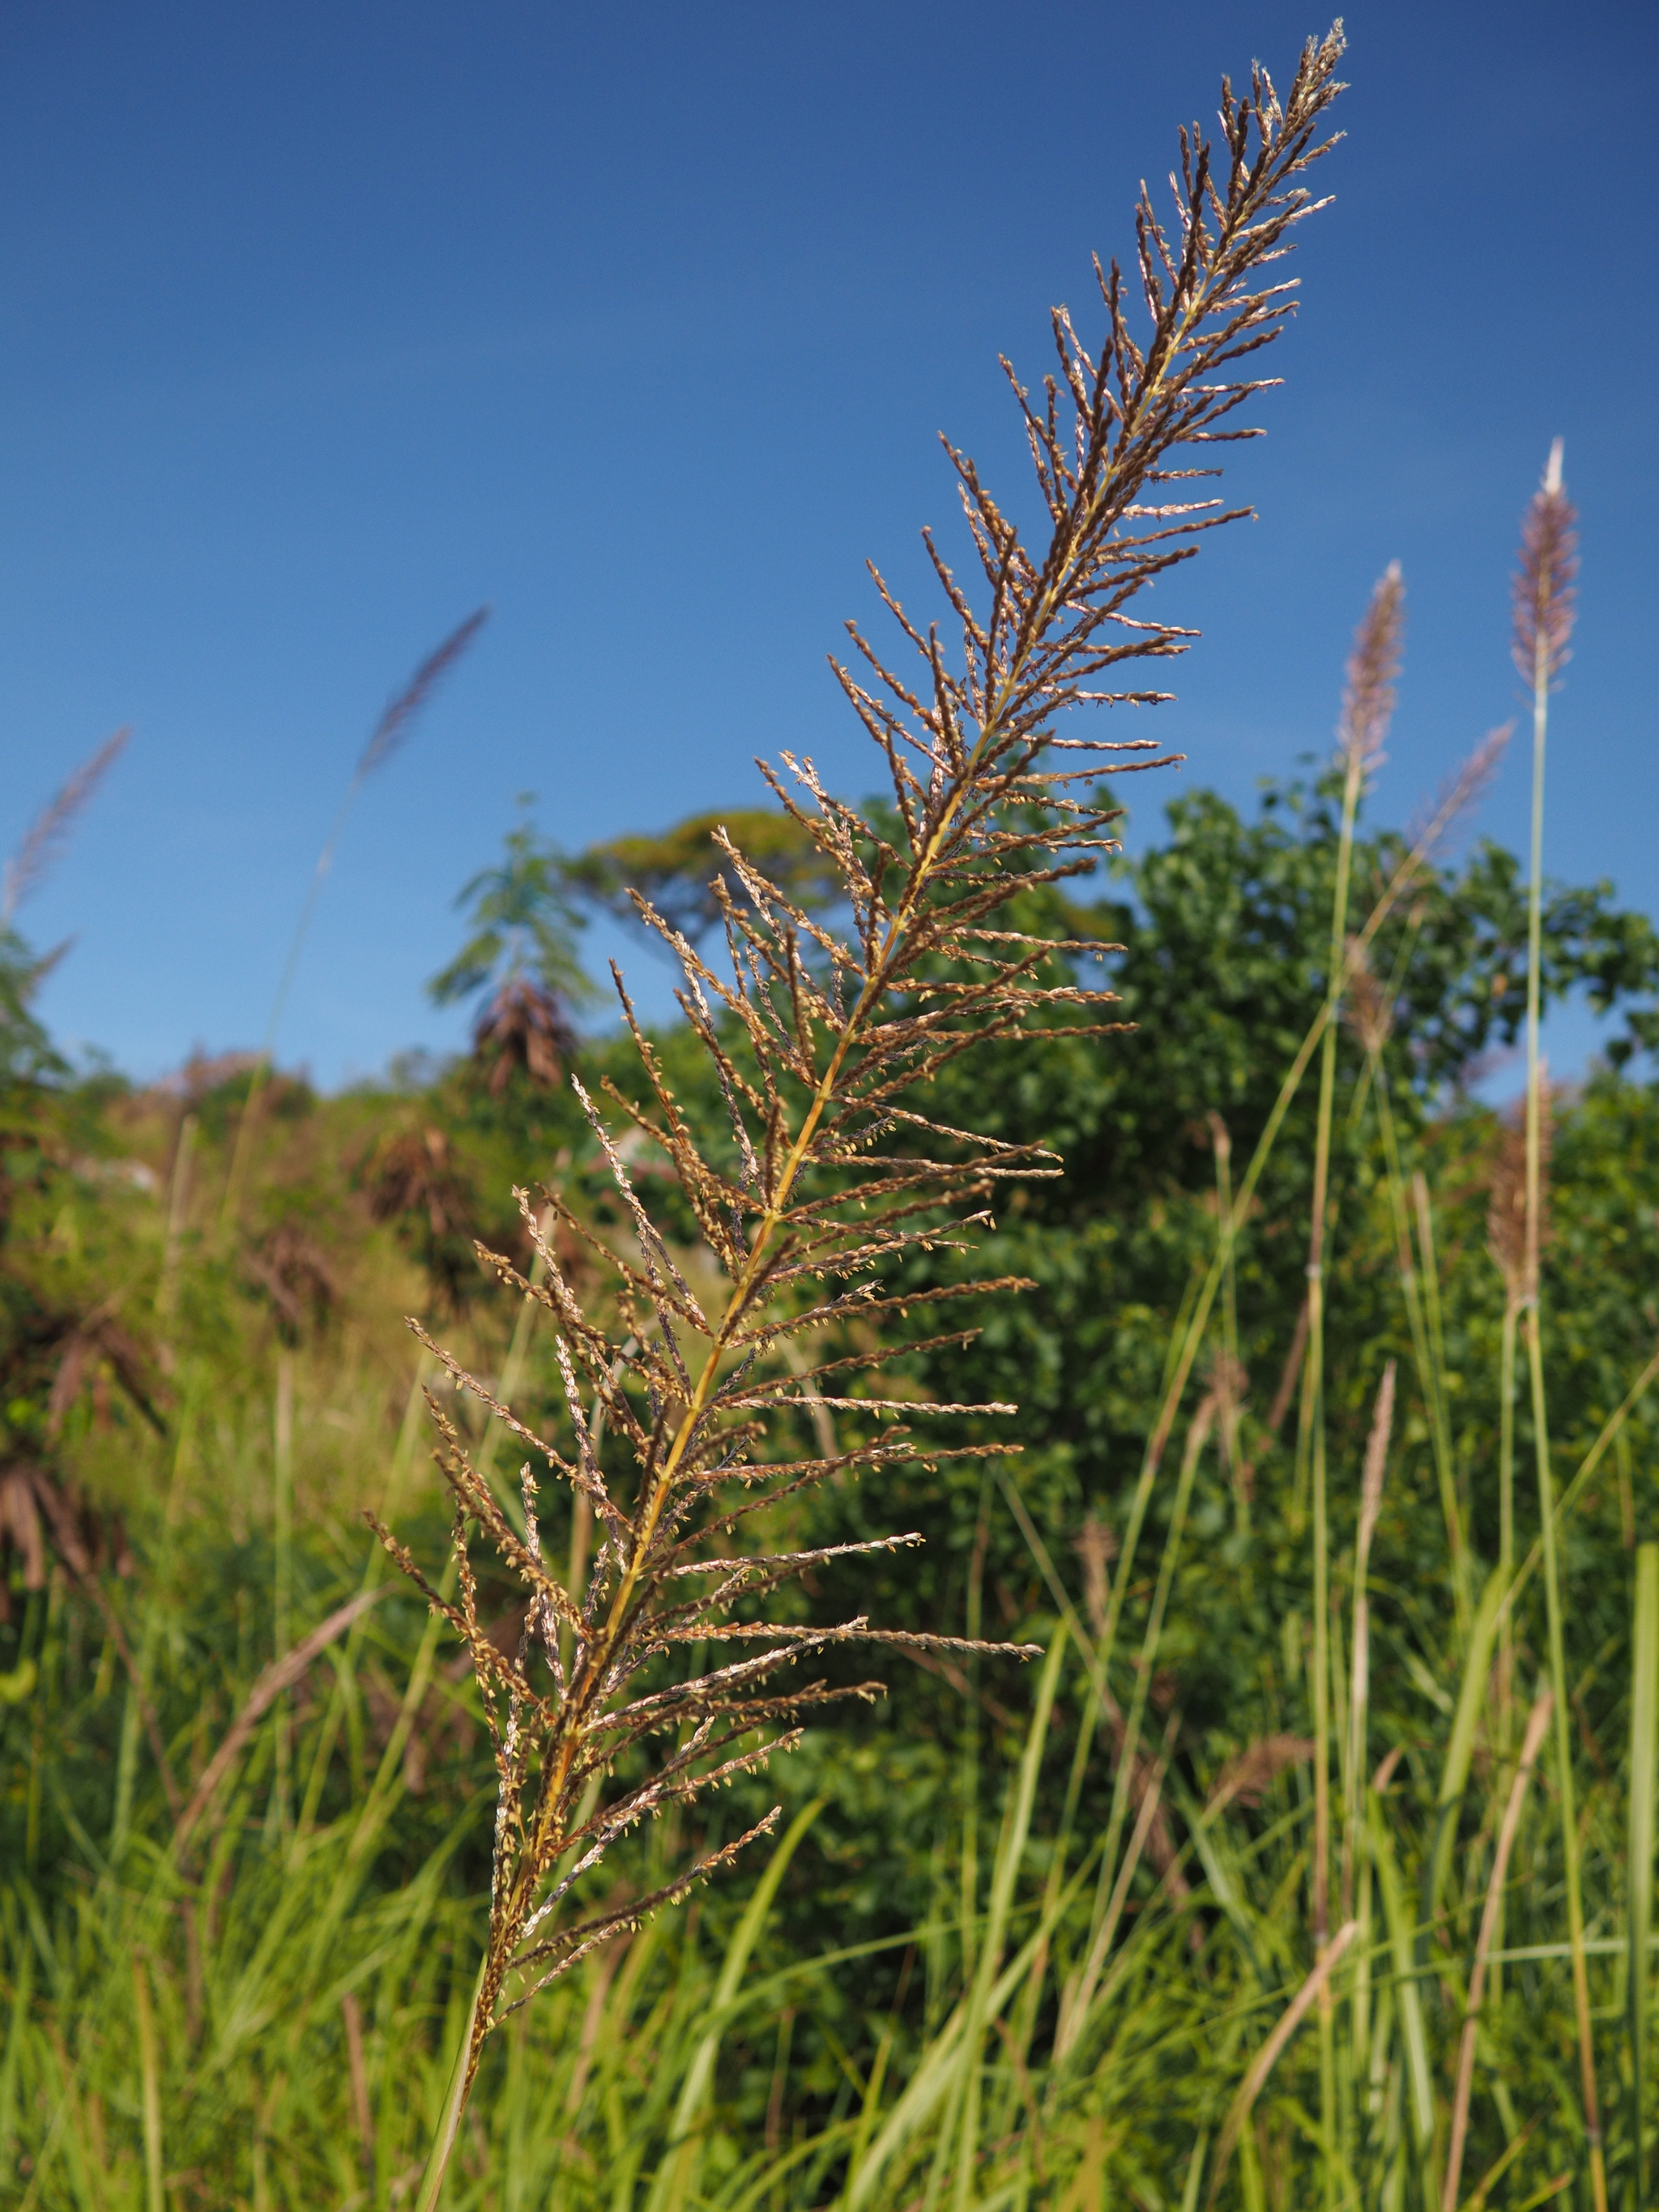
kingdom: Plantae
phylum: Tracheophyta
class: Liliopsida
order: Poales
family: Poaceae
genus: Narenga
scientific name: Narenga porphyrocoma
